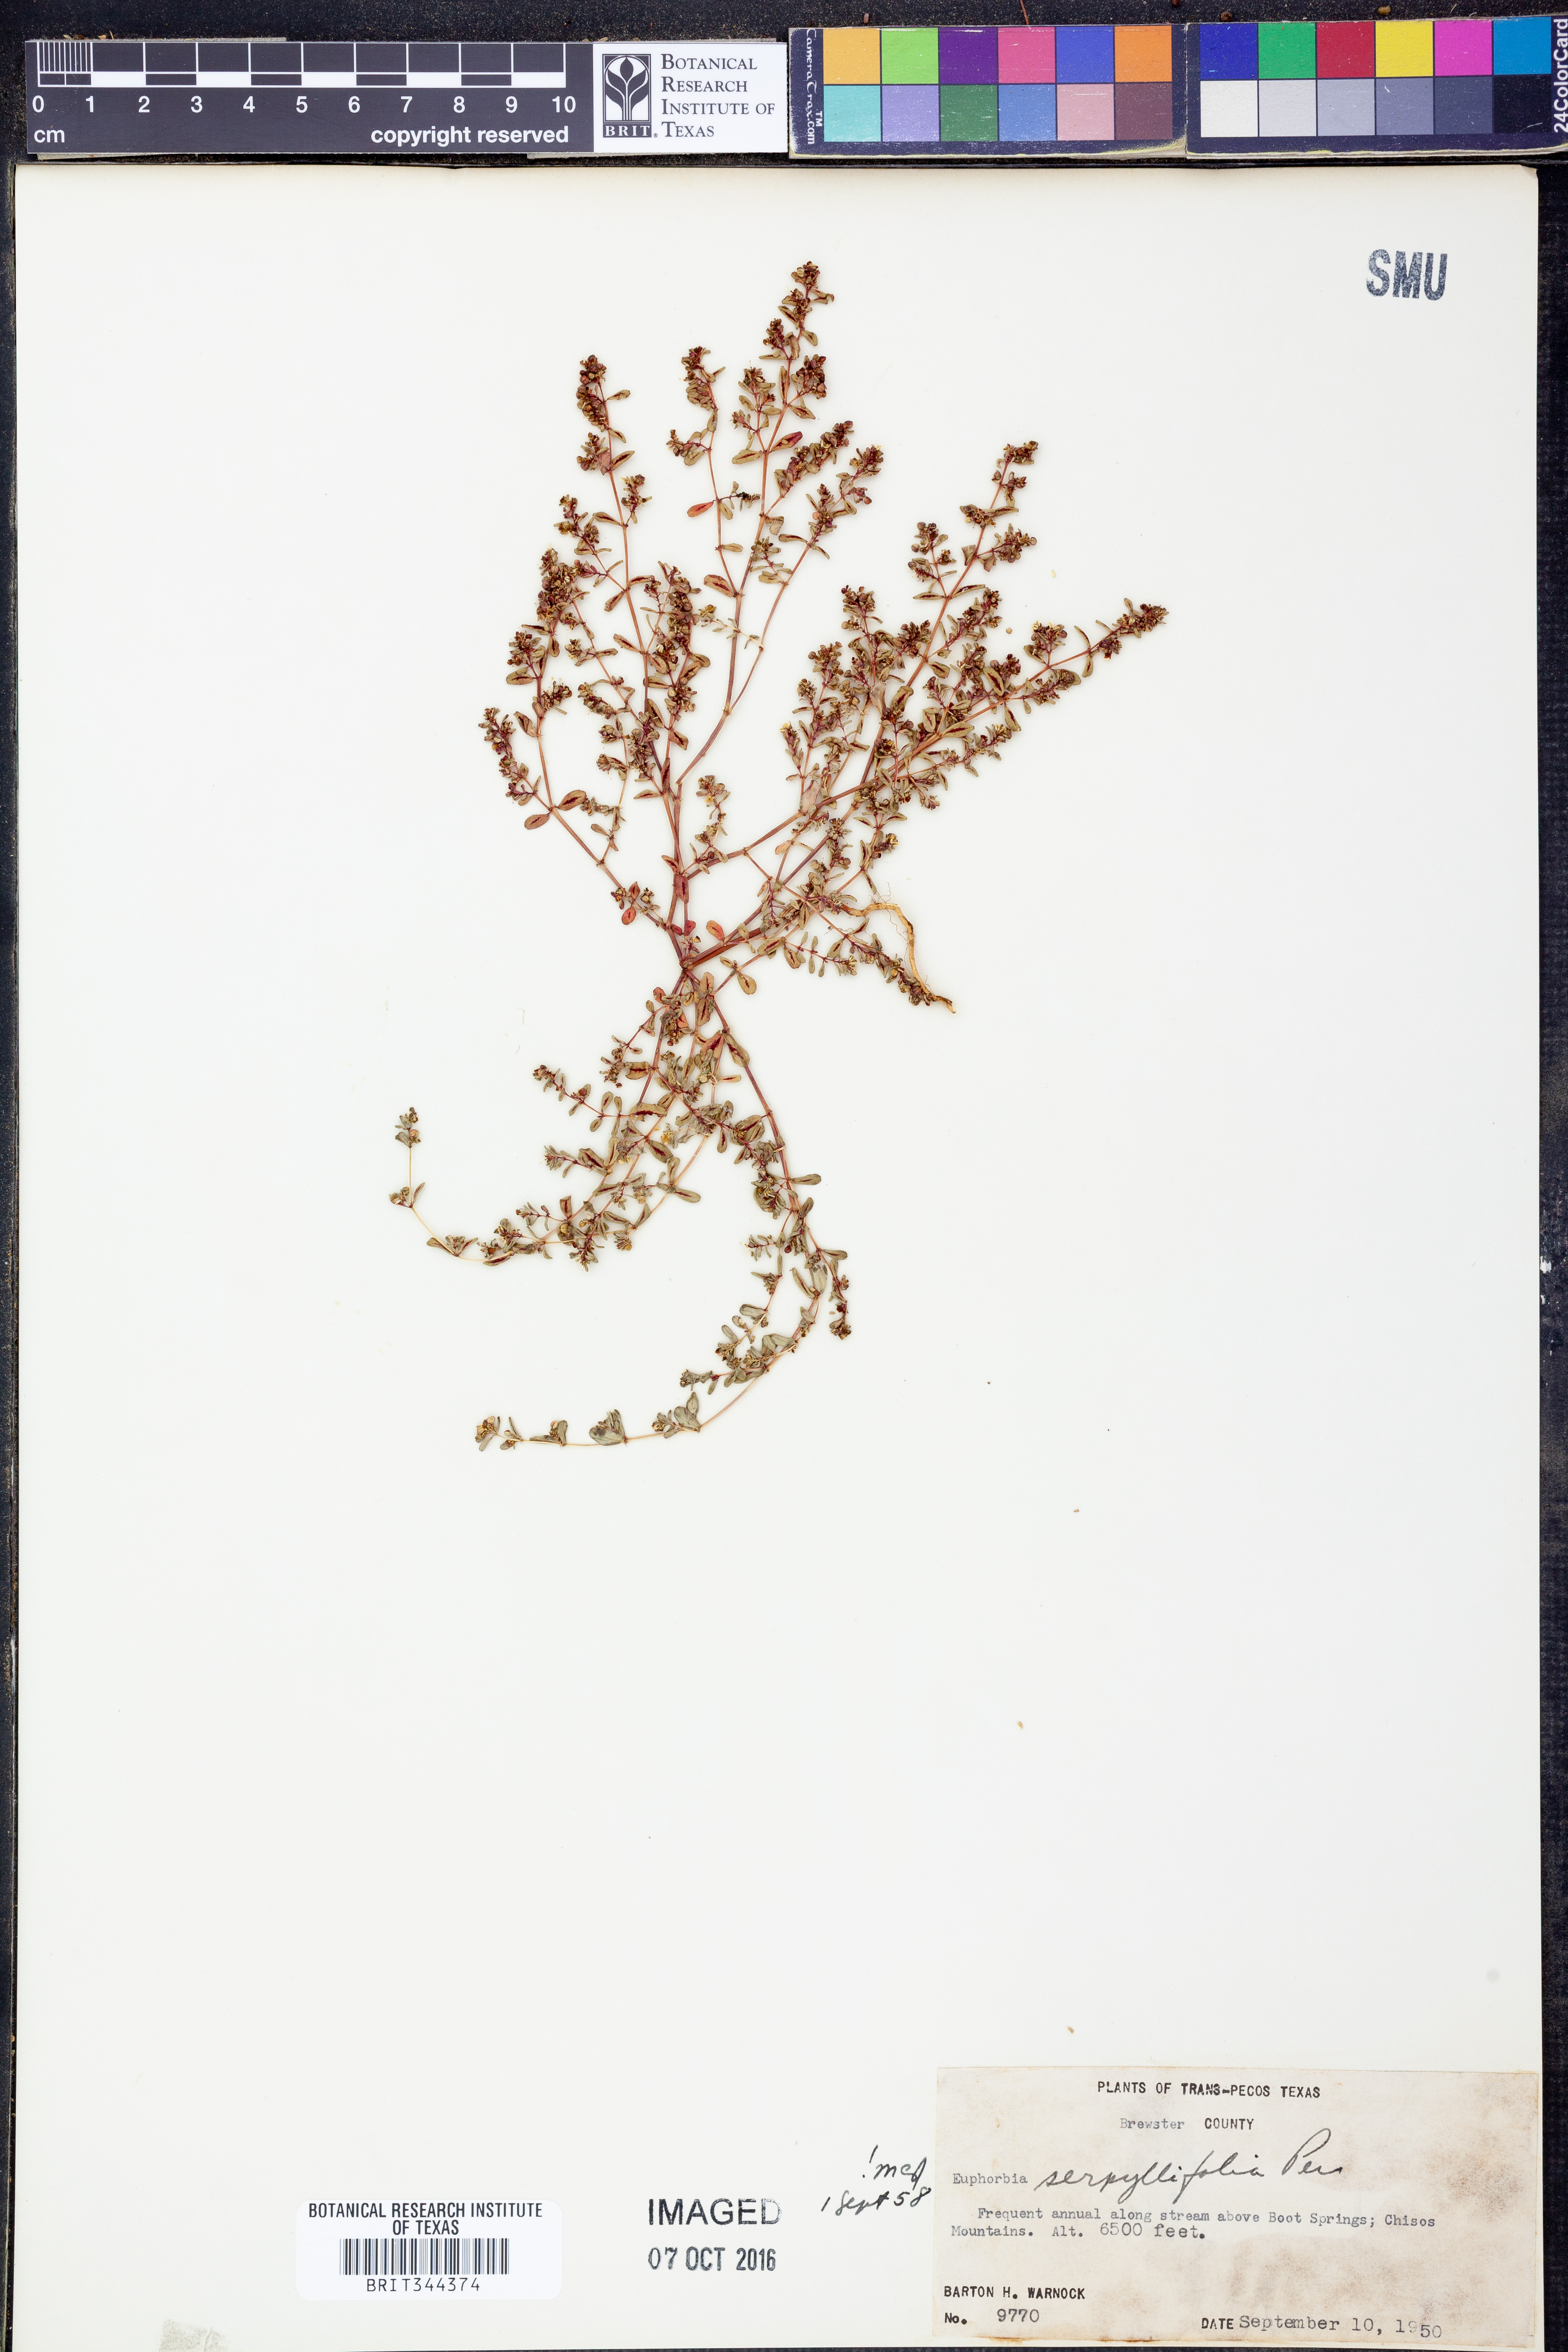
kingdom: Plantae
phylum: Tracheophyta
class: Magnoliopsida
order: Malpighiales
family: Euphorbiaceae
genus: Euphorbia
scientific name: Euphorbia serpillifolia
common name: Thyme-leaf spurge
